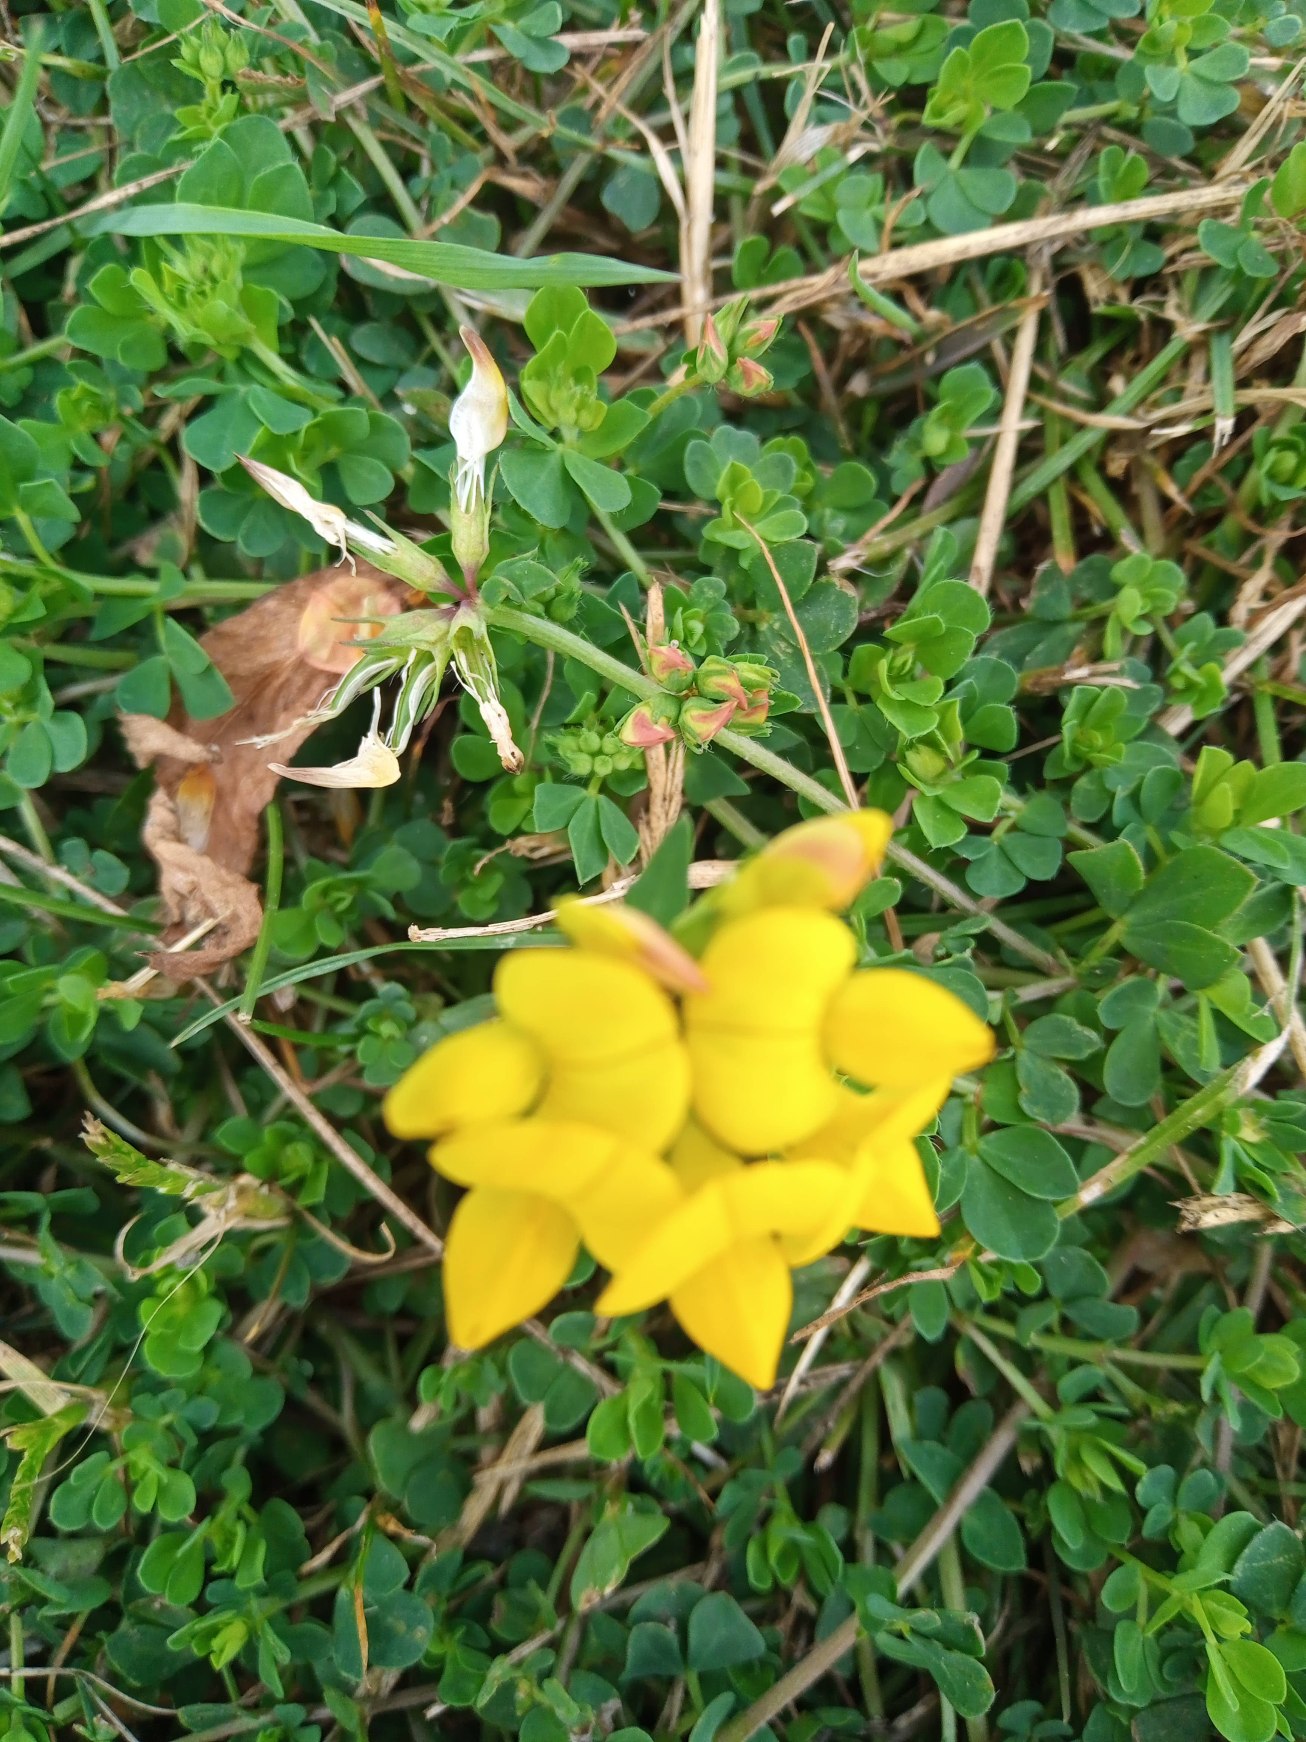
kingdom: Plantae
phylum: Tracheophyta
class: Magnoliopsida
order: Fabales
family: Fabaceae
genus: Lotus
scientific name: Lotus corniculatus
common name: Almindelig kællingetand
